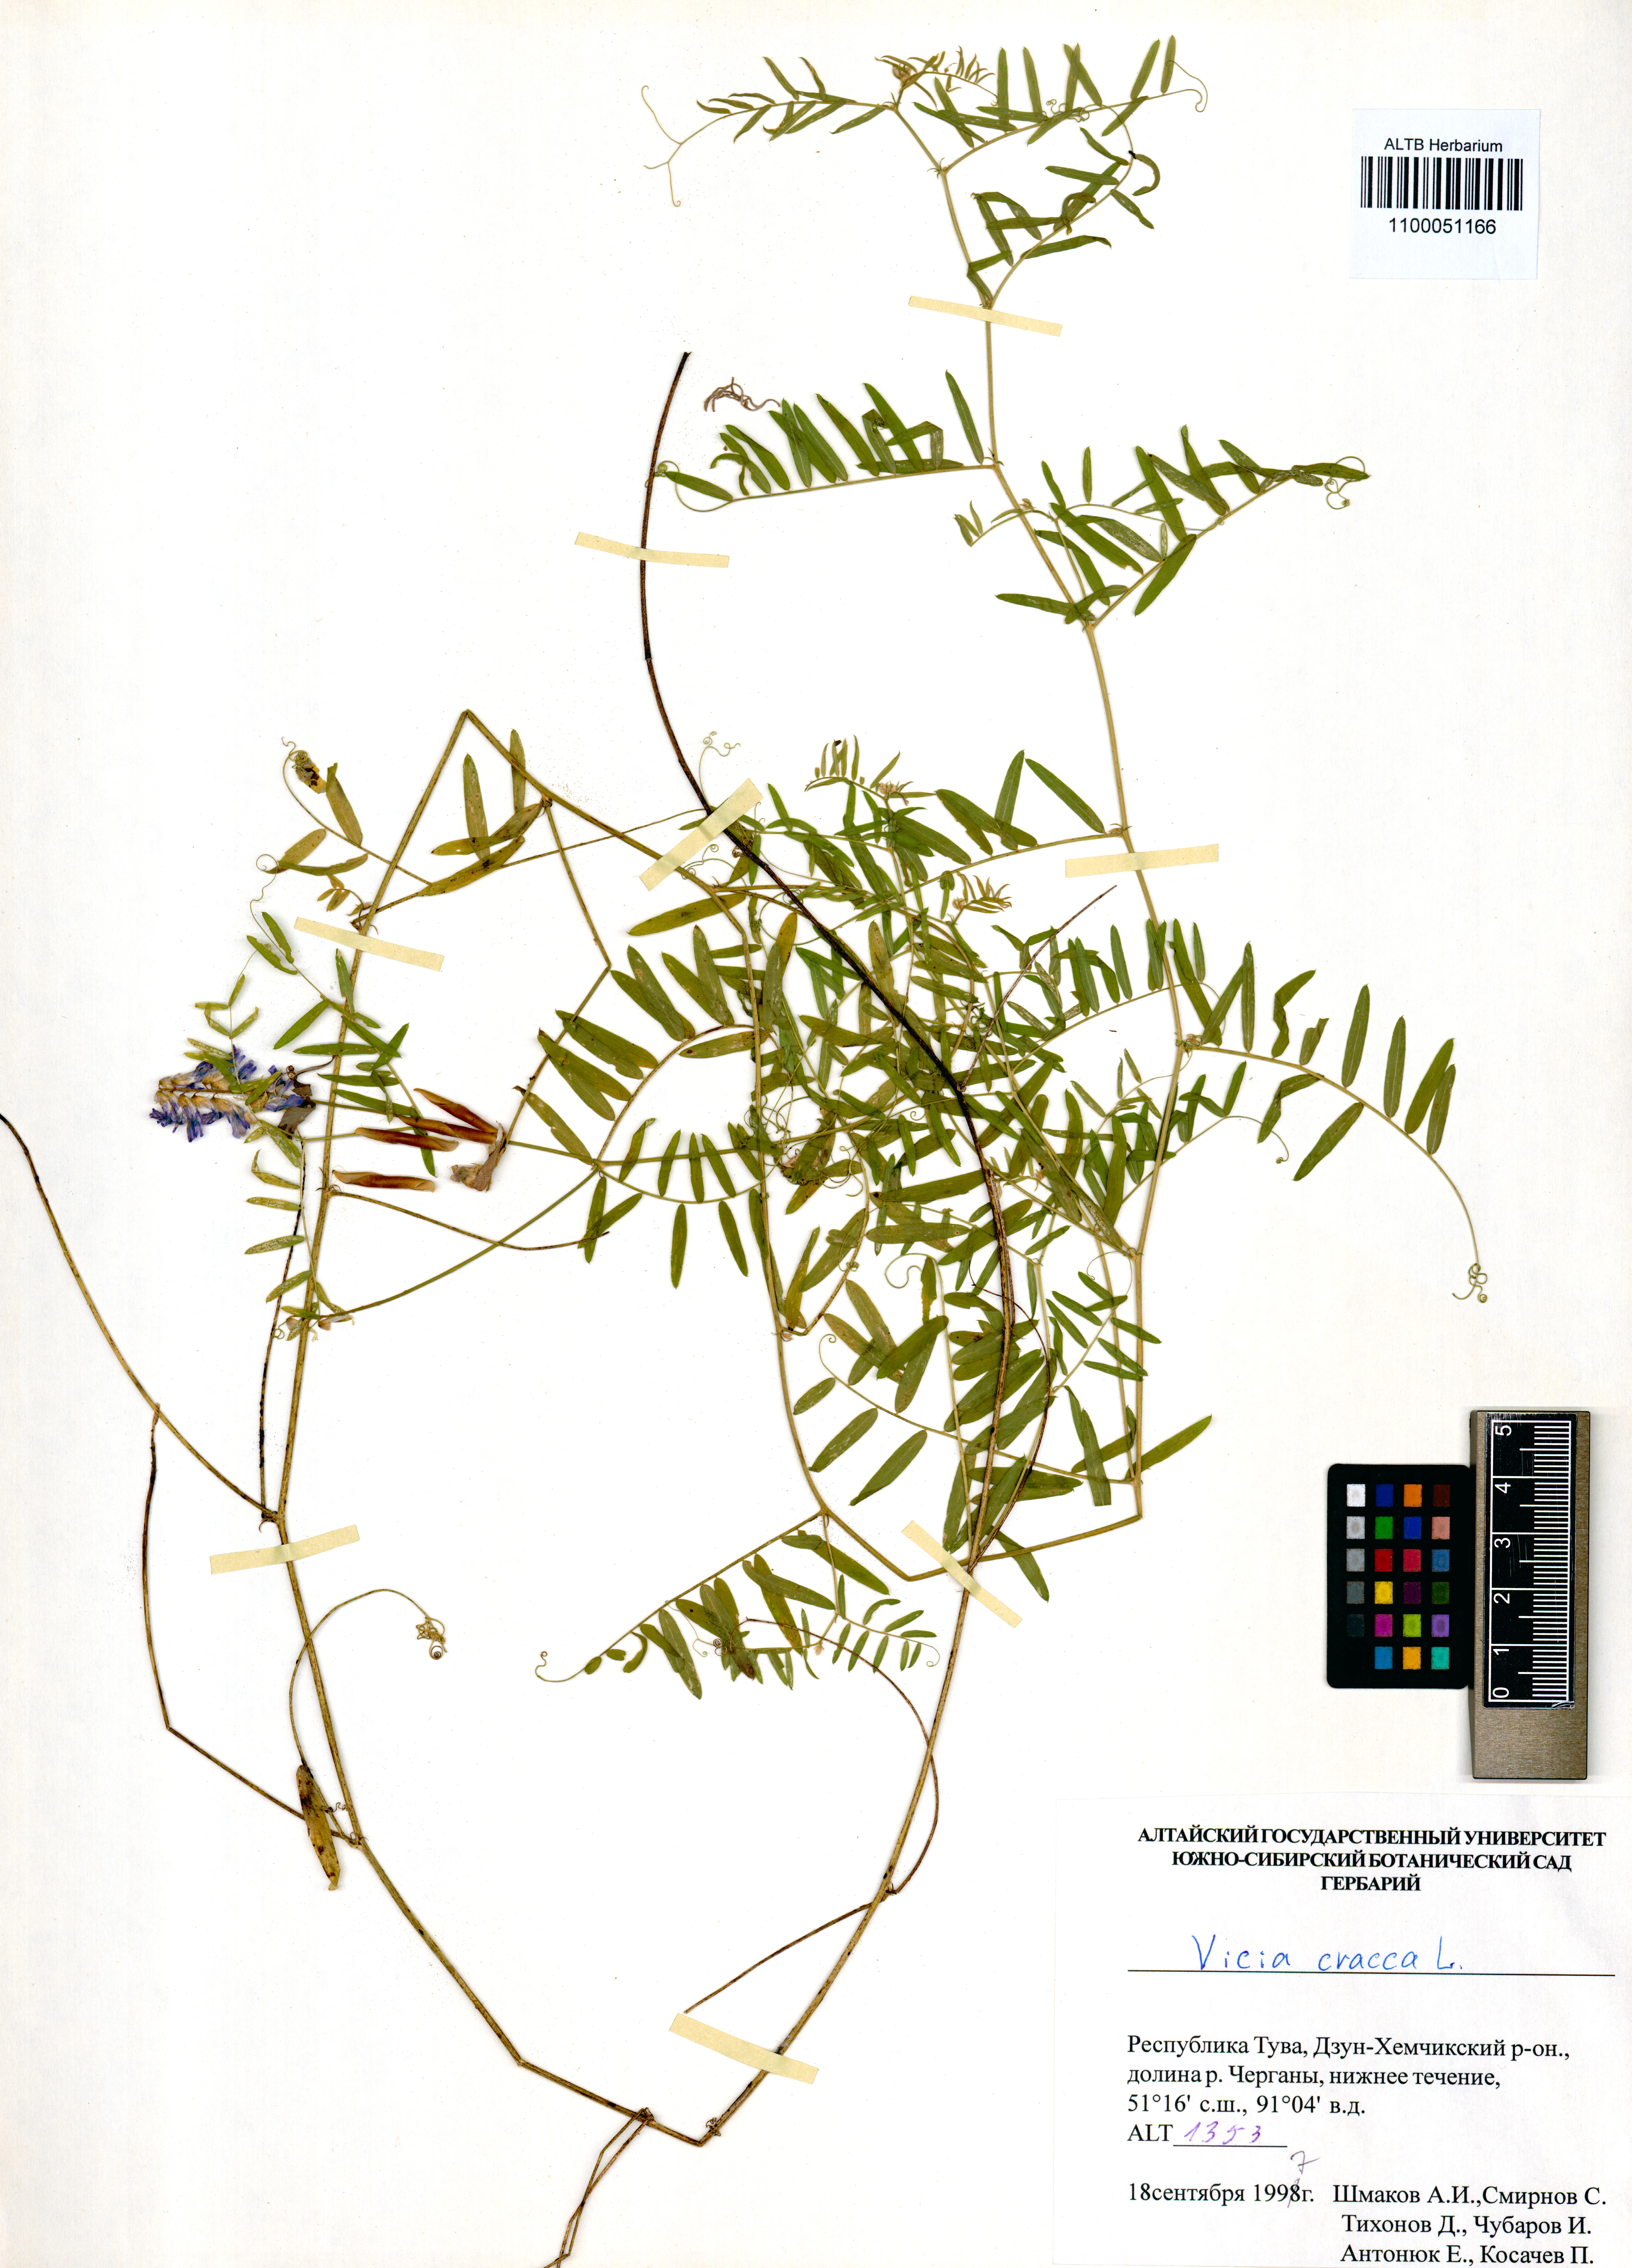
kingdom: Plantae
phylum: Tracheophyta
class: Magnoliopsida
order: Fabales
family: Fabaceae
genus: Vicia
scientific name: Vicia cracca
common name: Bird vetch
